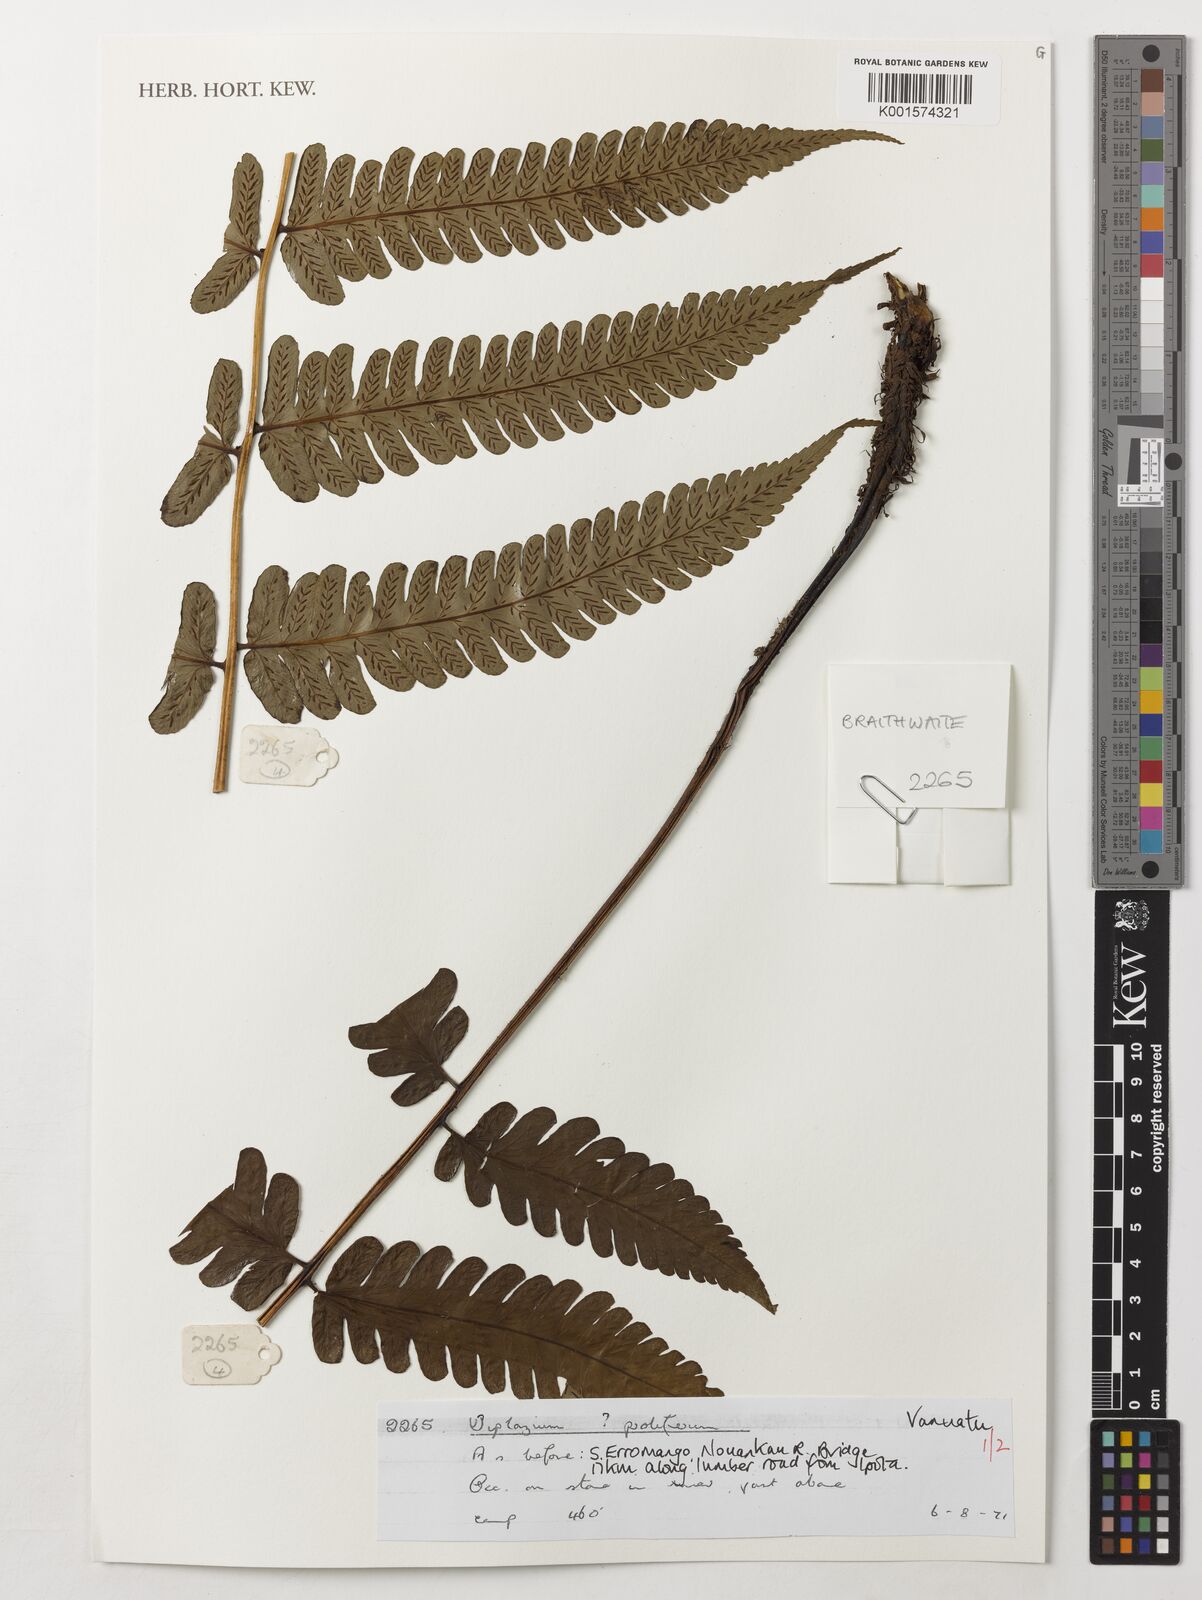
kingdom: Plantae
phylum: Tracheophyta
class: Polypodiopsida
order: Polypodiales
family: Athyriaceae
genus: Diplazium
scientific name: Diplazium proliferum
